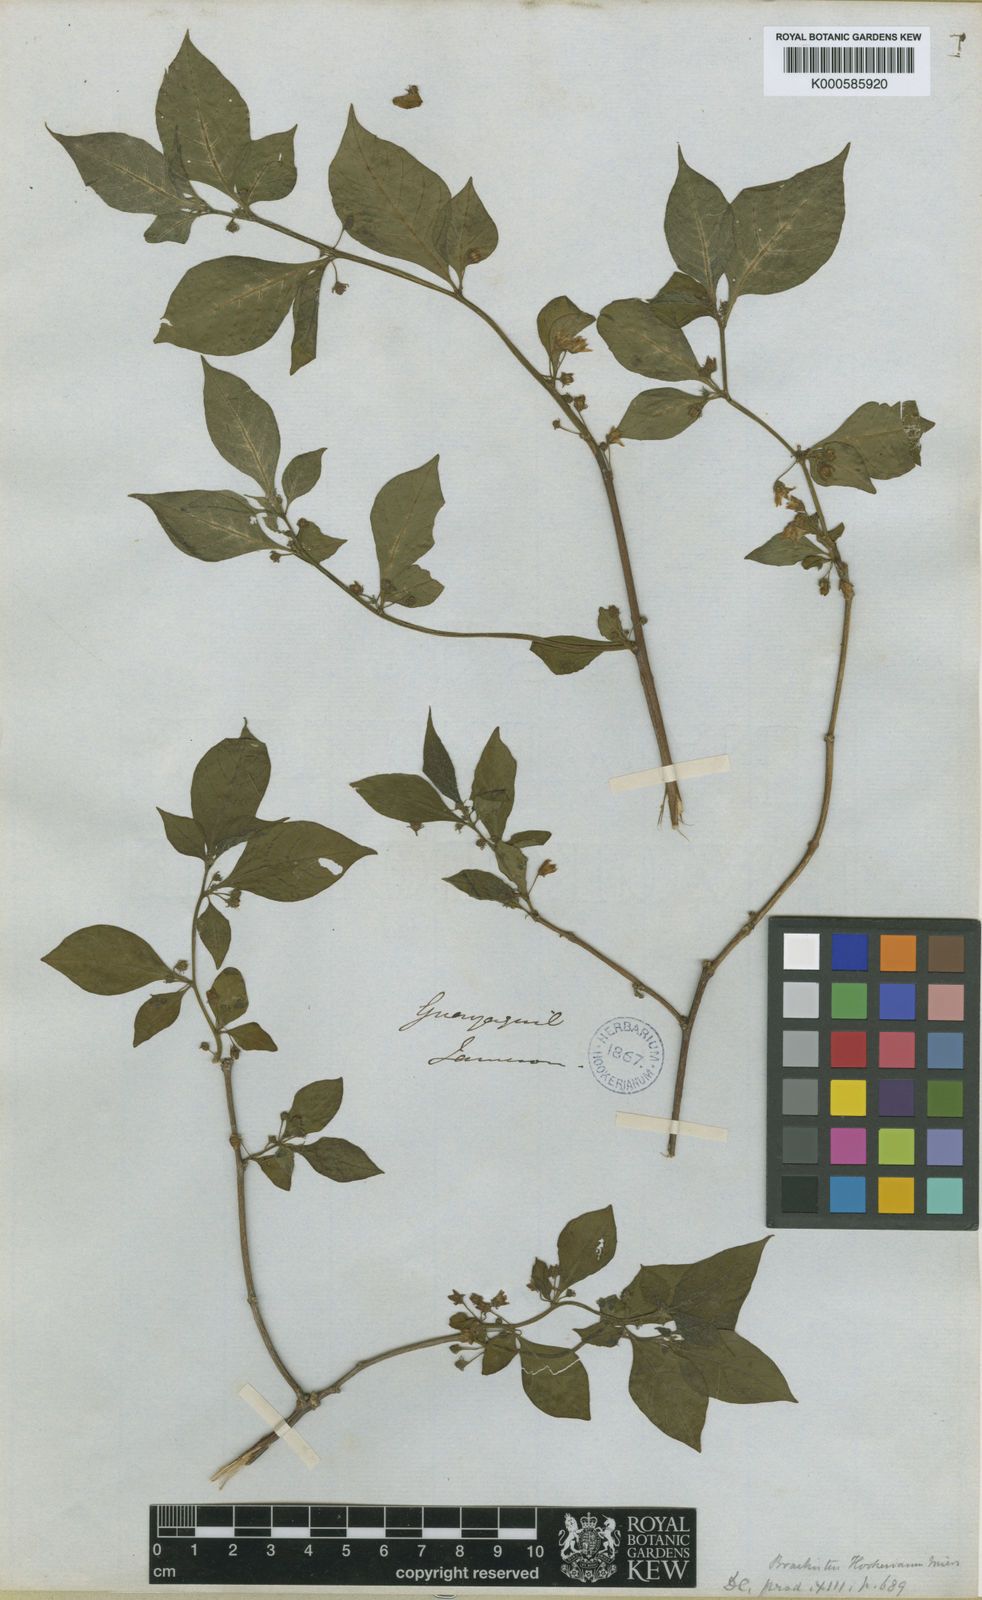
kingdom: Plantae
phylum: Tracheophyta
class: Magnoliopsida
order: Solanales
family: Solanaceae
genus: Capsicum
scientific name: Capsicum hookerianum
